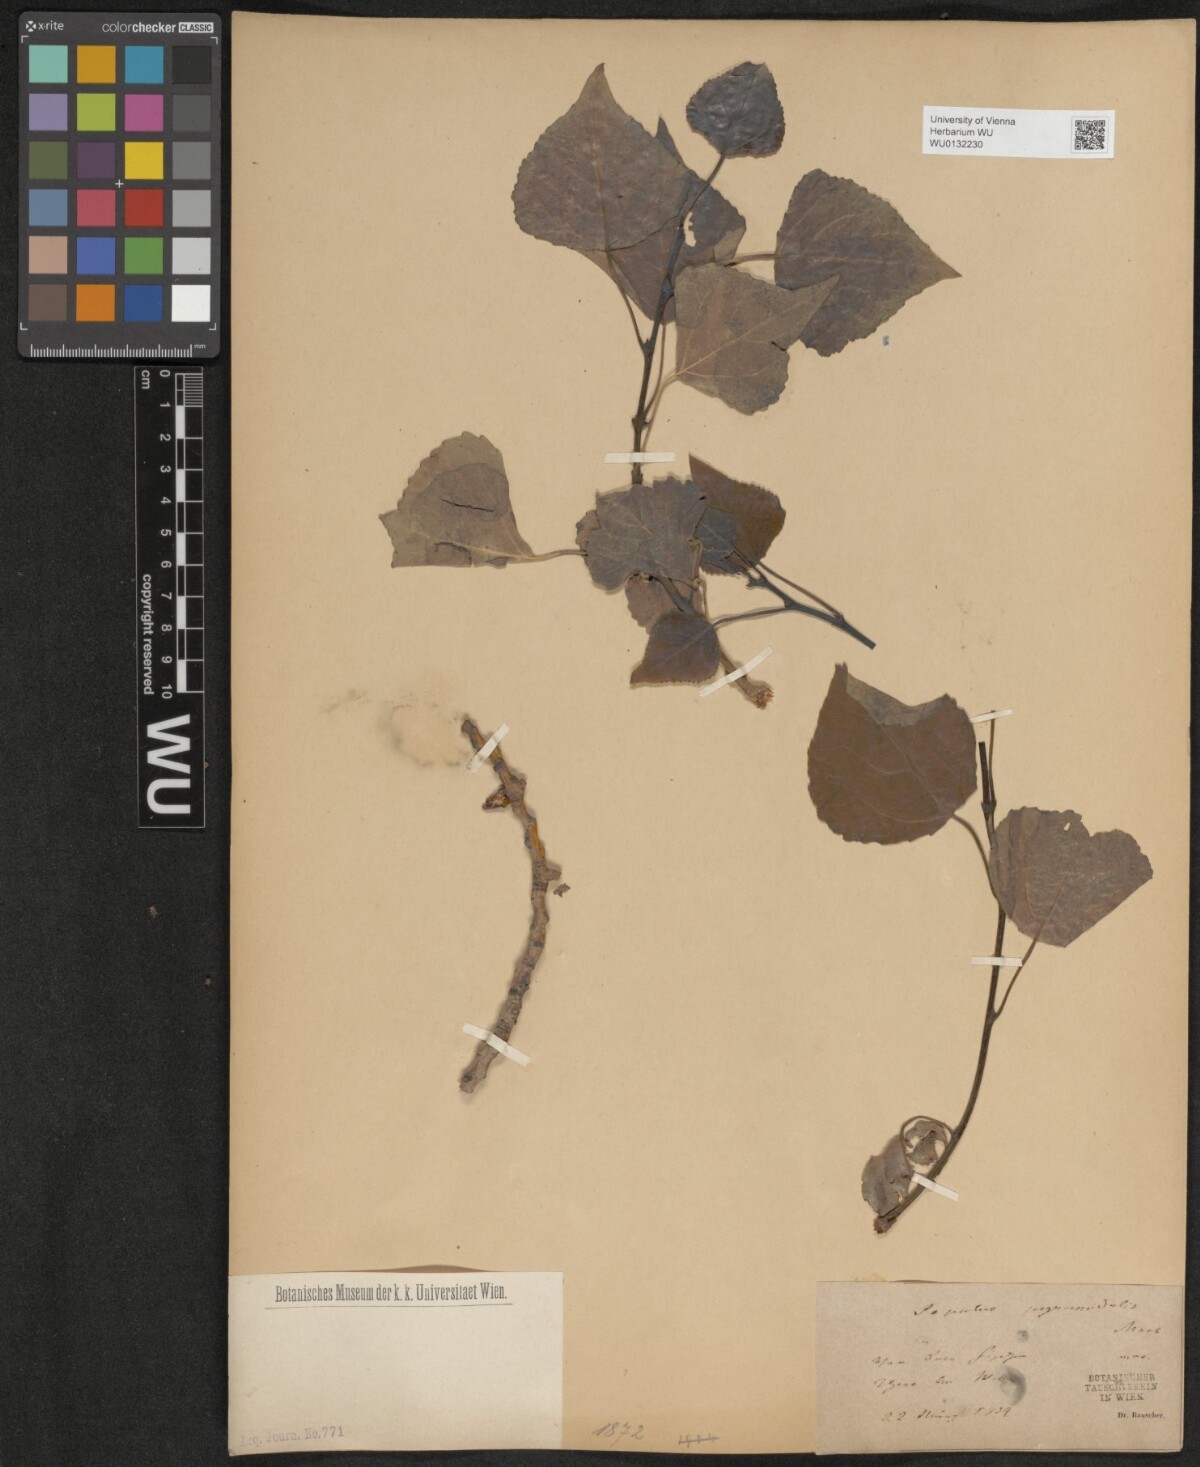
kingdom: Plantae
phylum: Tracheophyta
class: Magnoliopsida
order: Malpighiales
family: Salicaceae
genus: Populus
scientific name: Populus nigra
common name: Black poplar
